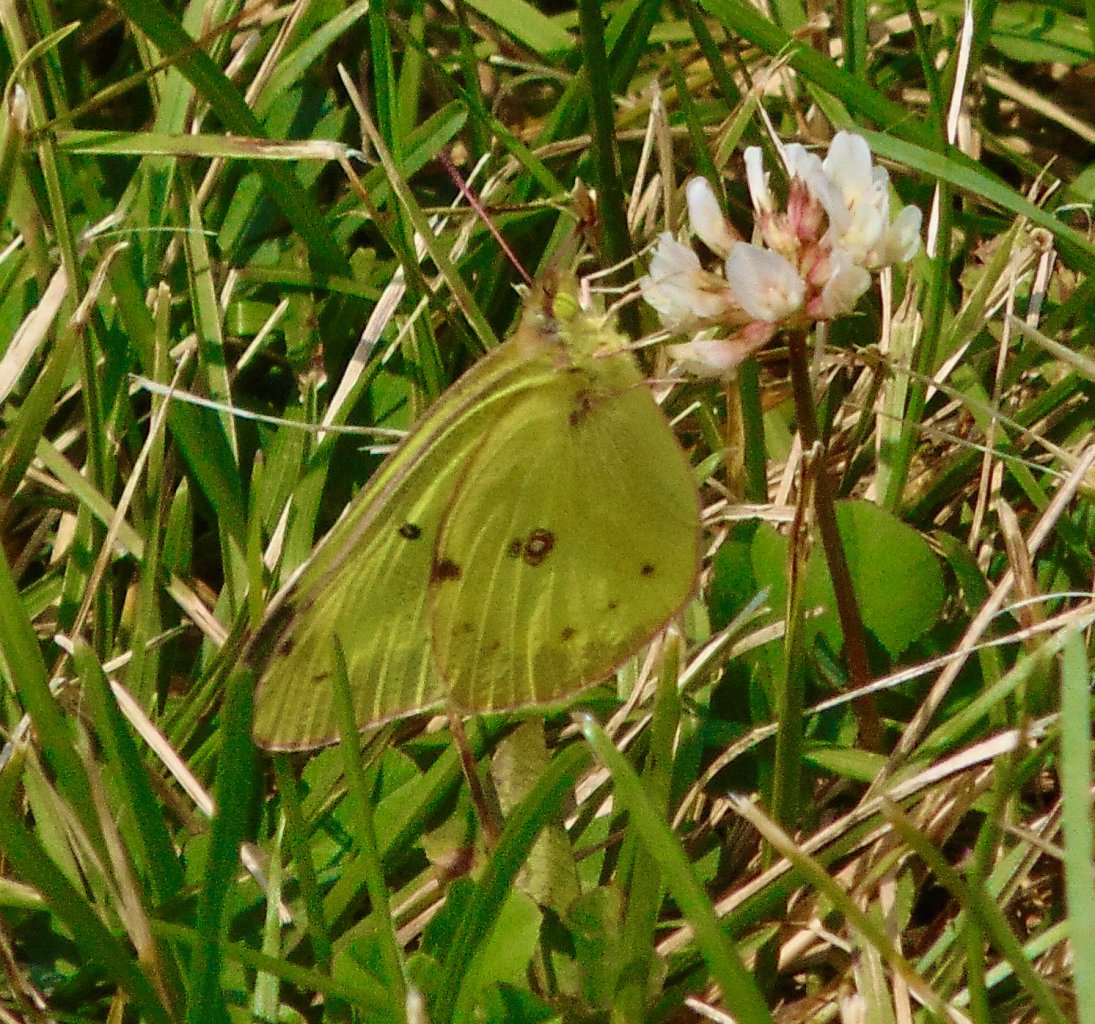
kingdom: Animalia
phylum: Arthropoda
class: Insecta
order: Lepidoptera
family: Pieridae
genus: Colias
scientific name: Colias philodice
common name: Clouded Sulphur
